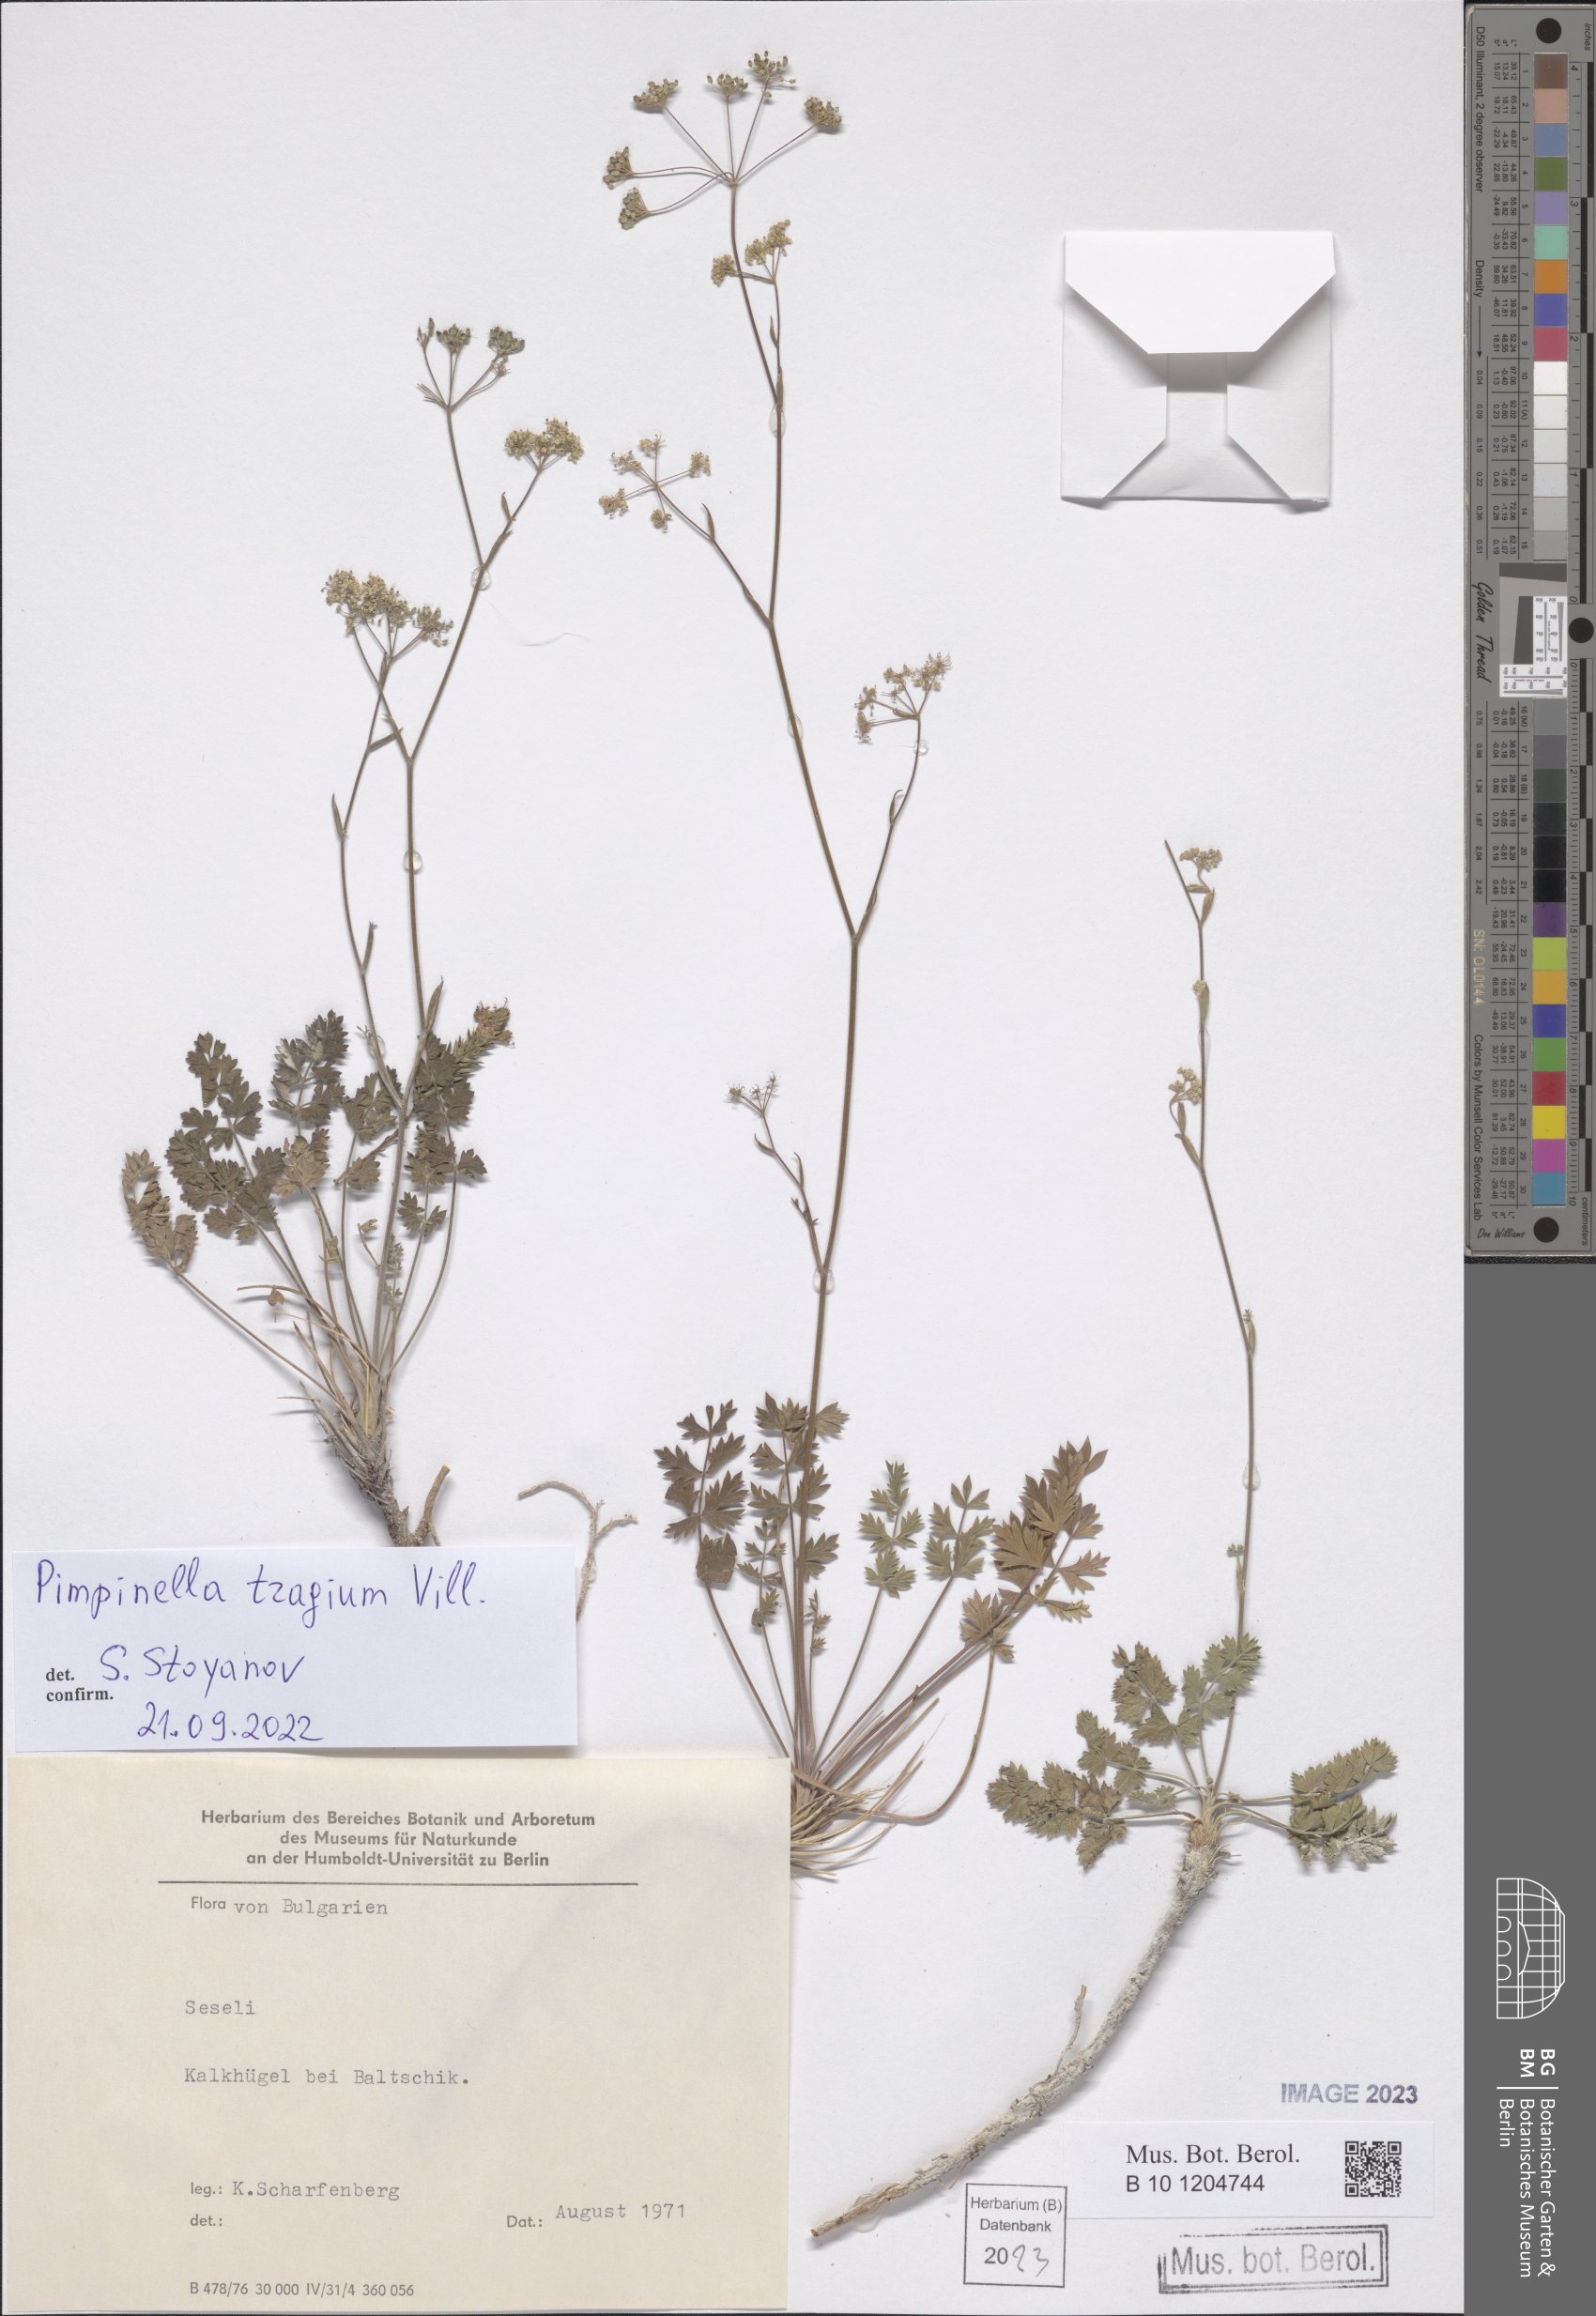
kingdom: Plantae
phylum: Tracheophyta
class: Magnoliopsida
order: Apiales
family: Apiaceae
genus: Pimpinella
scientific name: Pimpinella tragium
